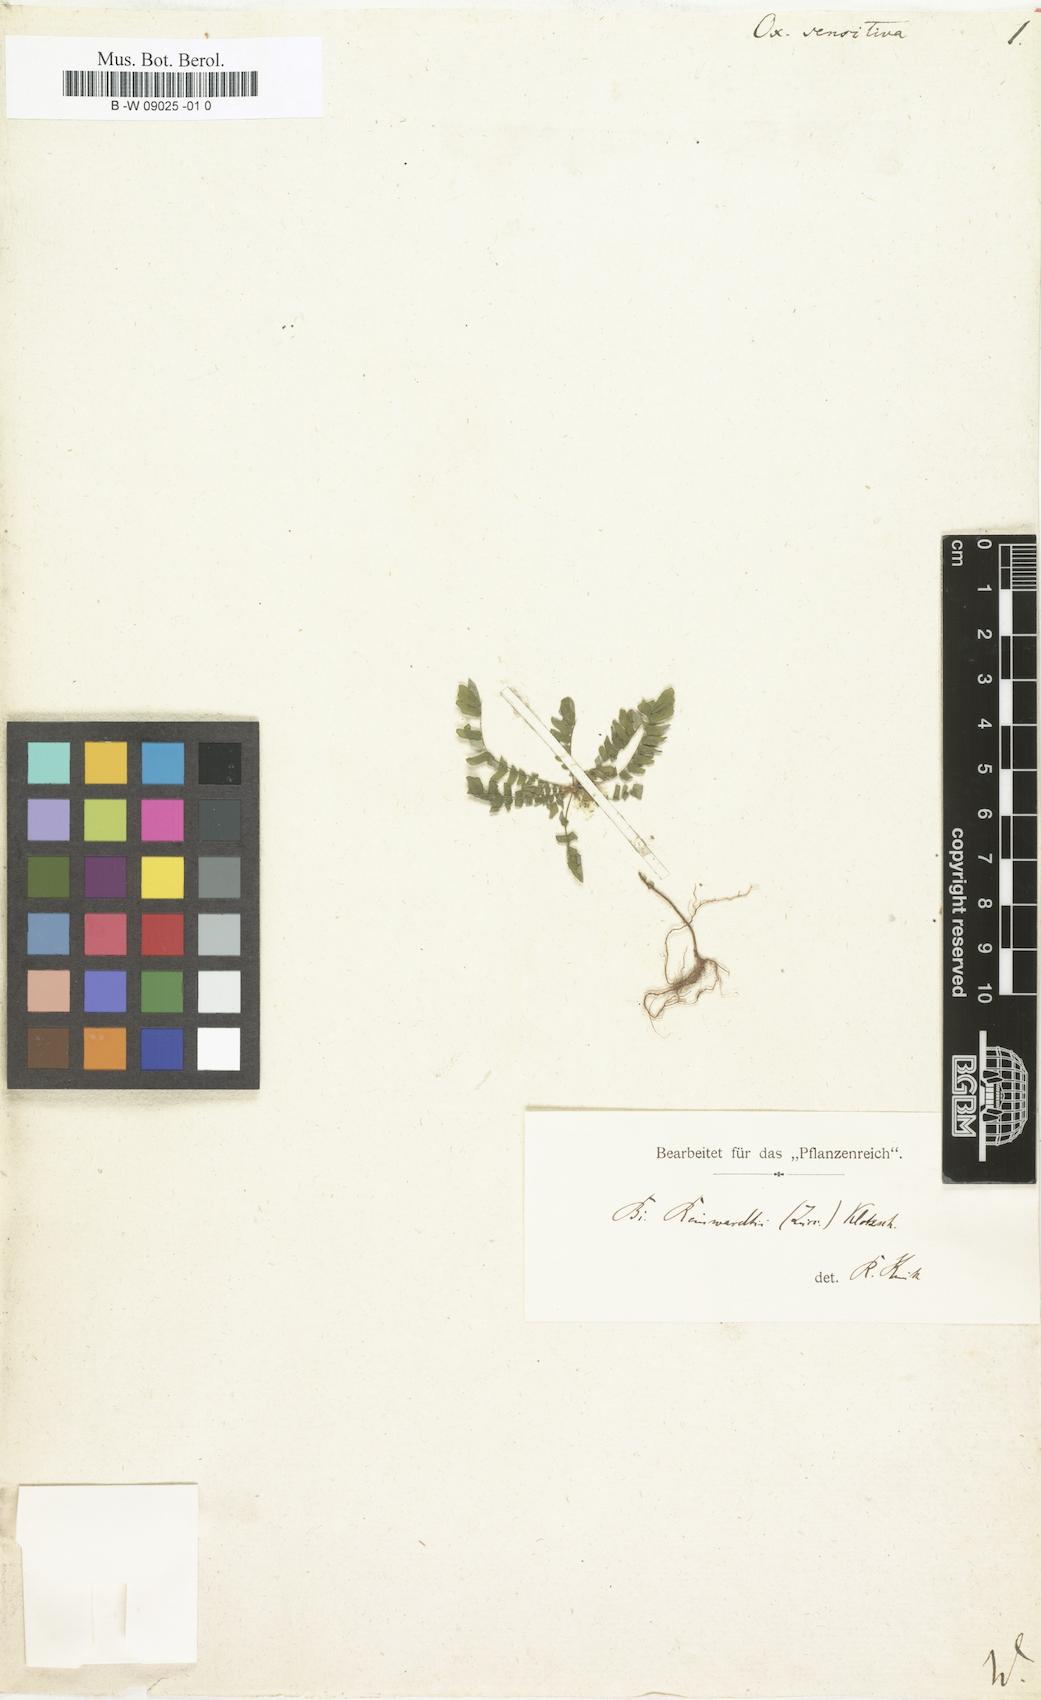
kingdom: Plantae
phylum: Tracheophyta
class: Magnoliopsida
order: Oxalidales
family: Oxalidaceae
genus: Biophytum
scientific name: Biophytum
